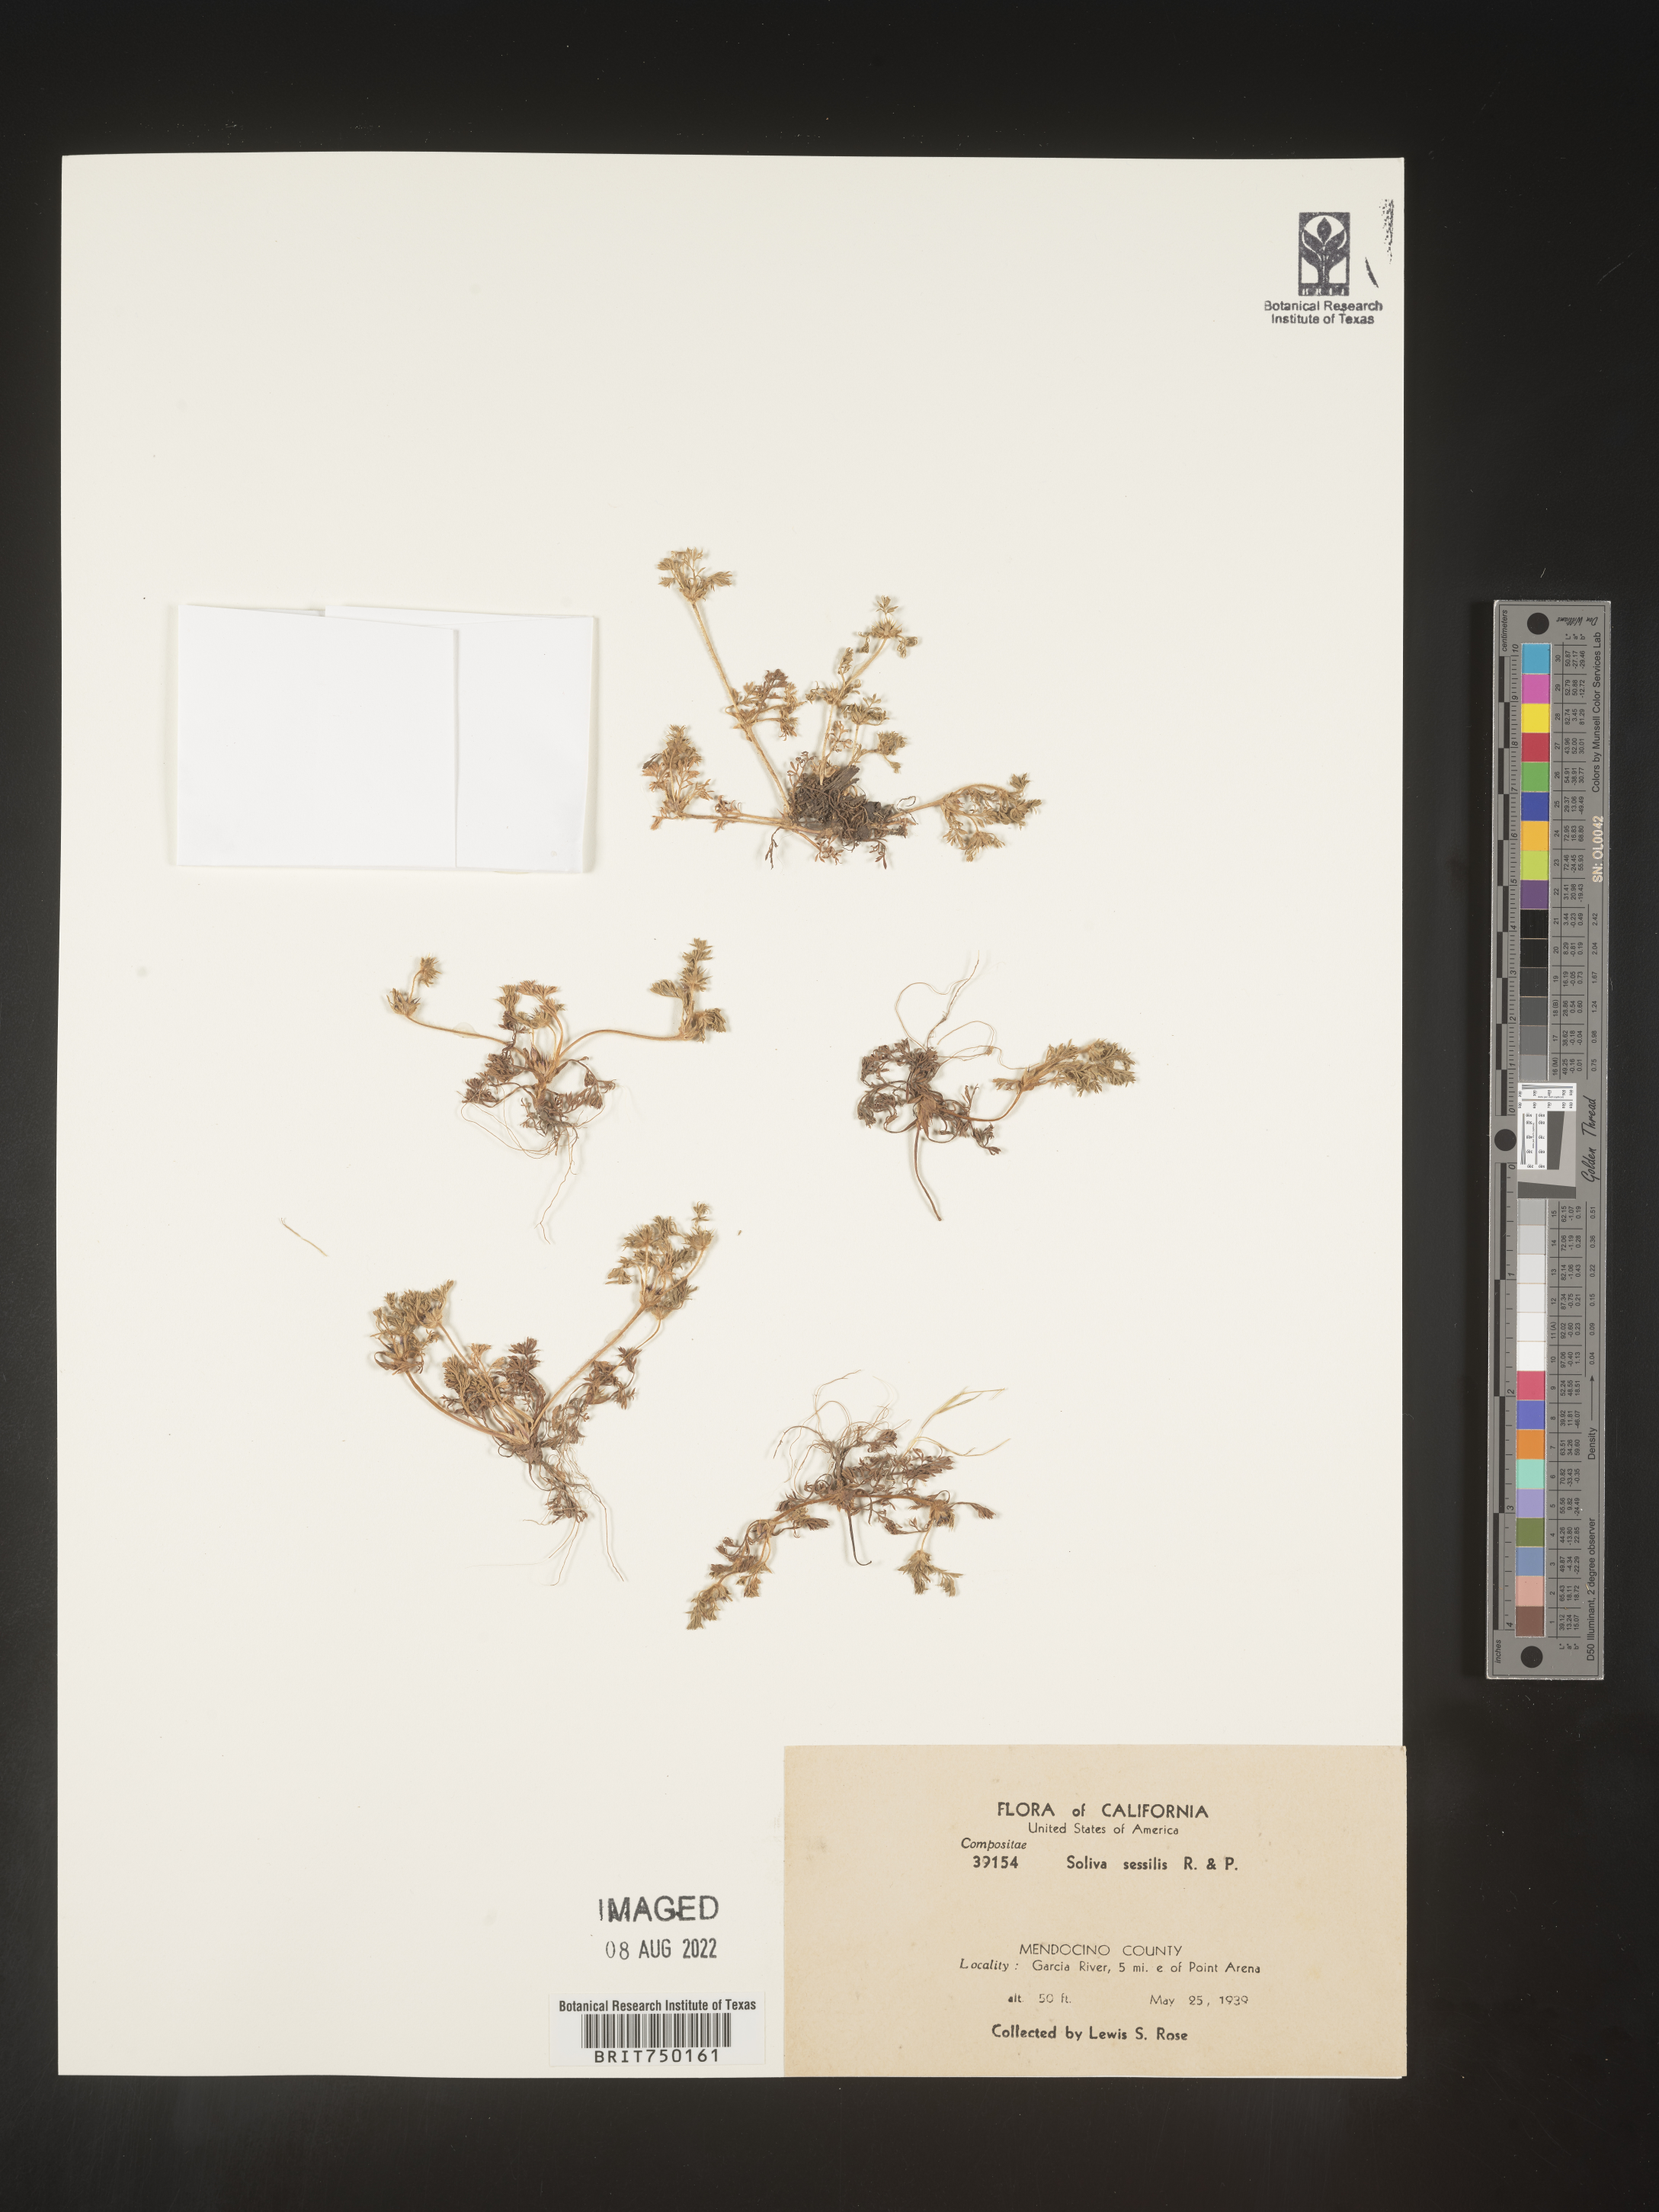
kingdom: Plantae
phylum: Tracheophyta
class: Magnoliopsida
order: Asterales
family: Asteraceae
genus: Soliva
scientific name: Soliva sessilis
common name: Field burrweed
